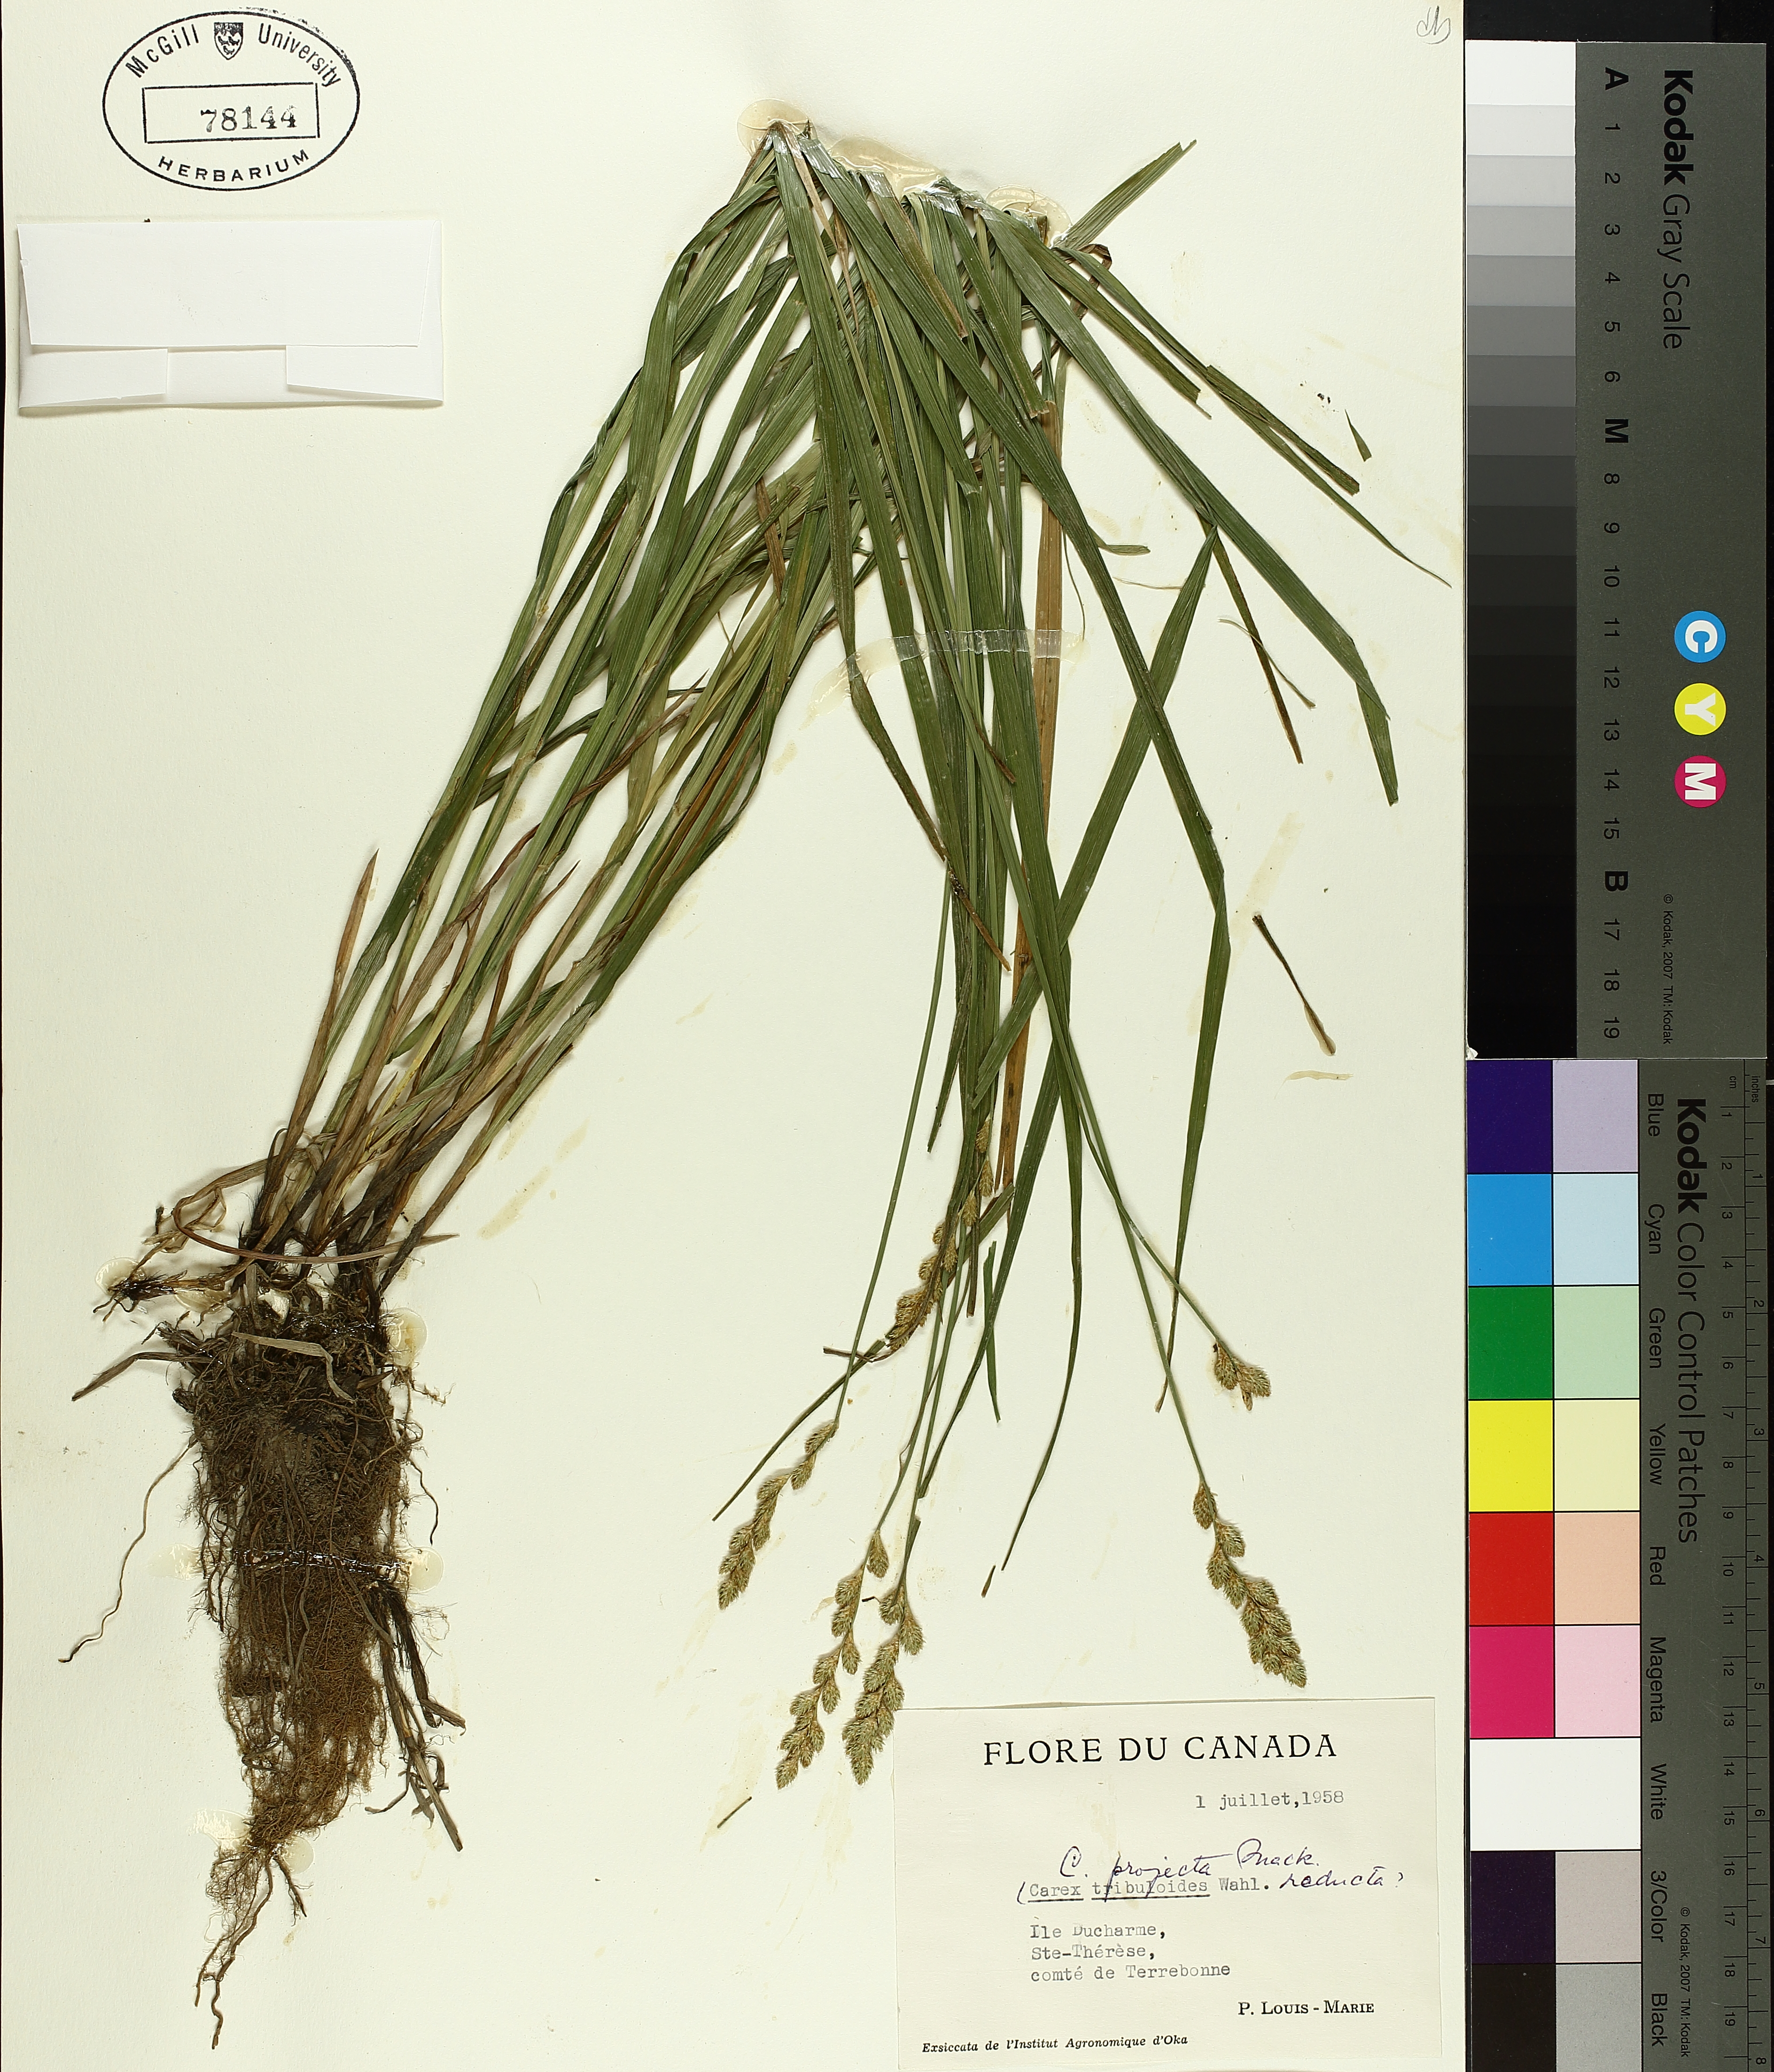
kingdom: Plantae
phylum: Tracheophyta
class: Liliopsida
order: Poales
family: Cyperaceae
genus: Carex
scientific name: Carex projecta
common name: Loose-headed oval sedge
